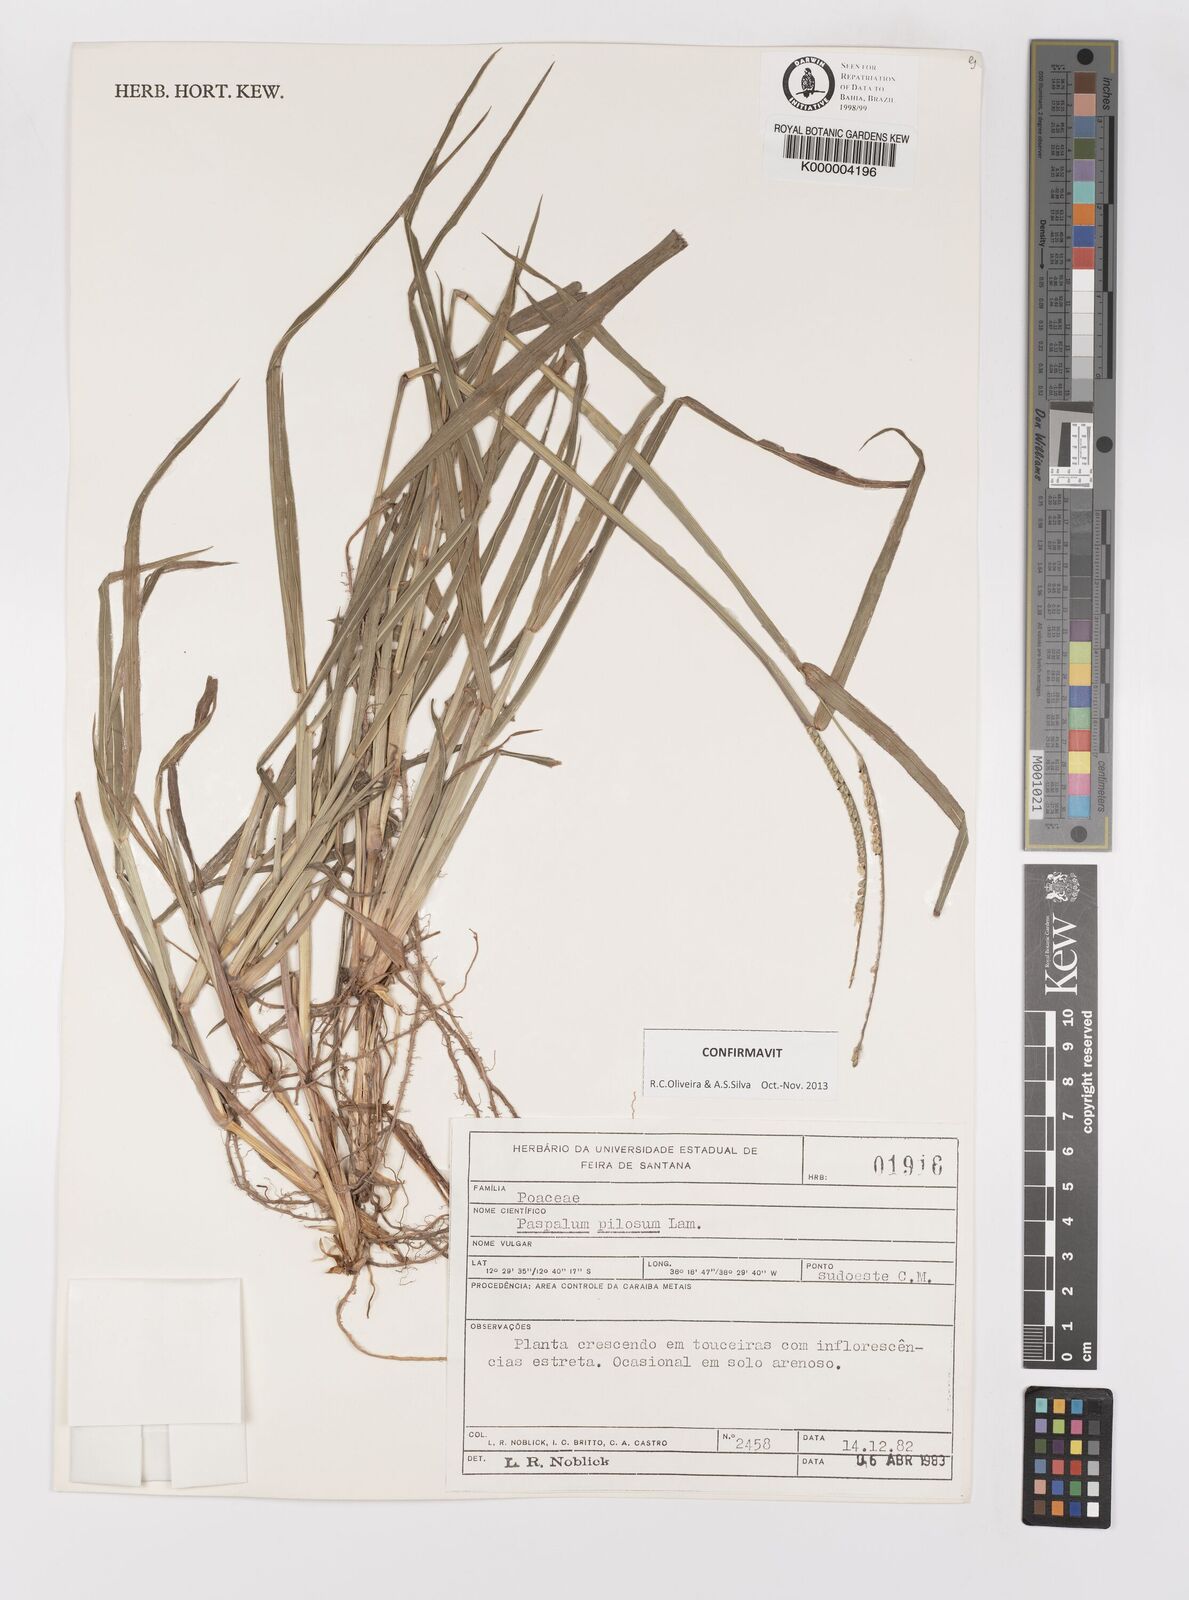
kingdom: Plantae
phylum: Tracheophyta
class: Liliopsida
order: Poales
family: Poaceae
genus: Paspalum
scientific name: Paspalum pilosum
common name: Crowngrass
